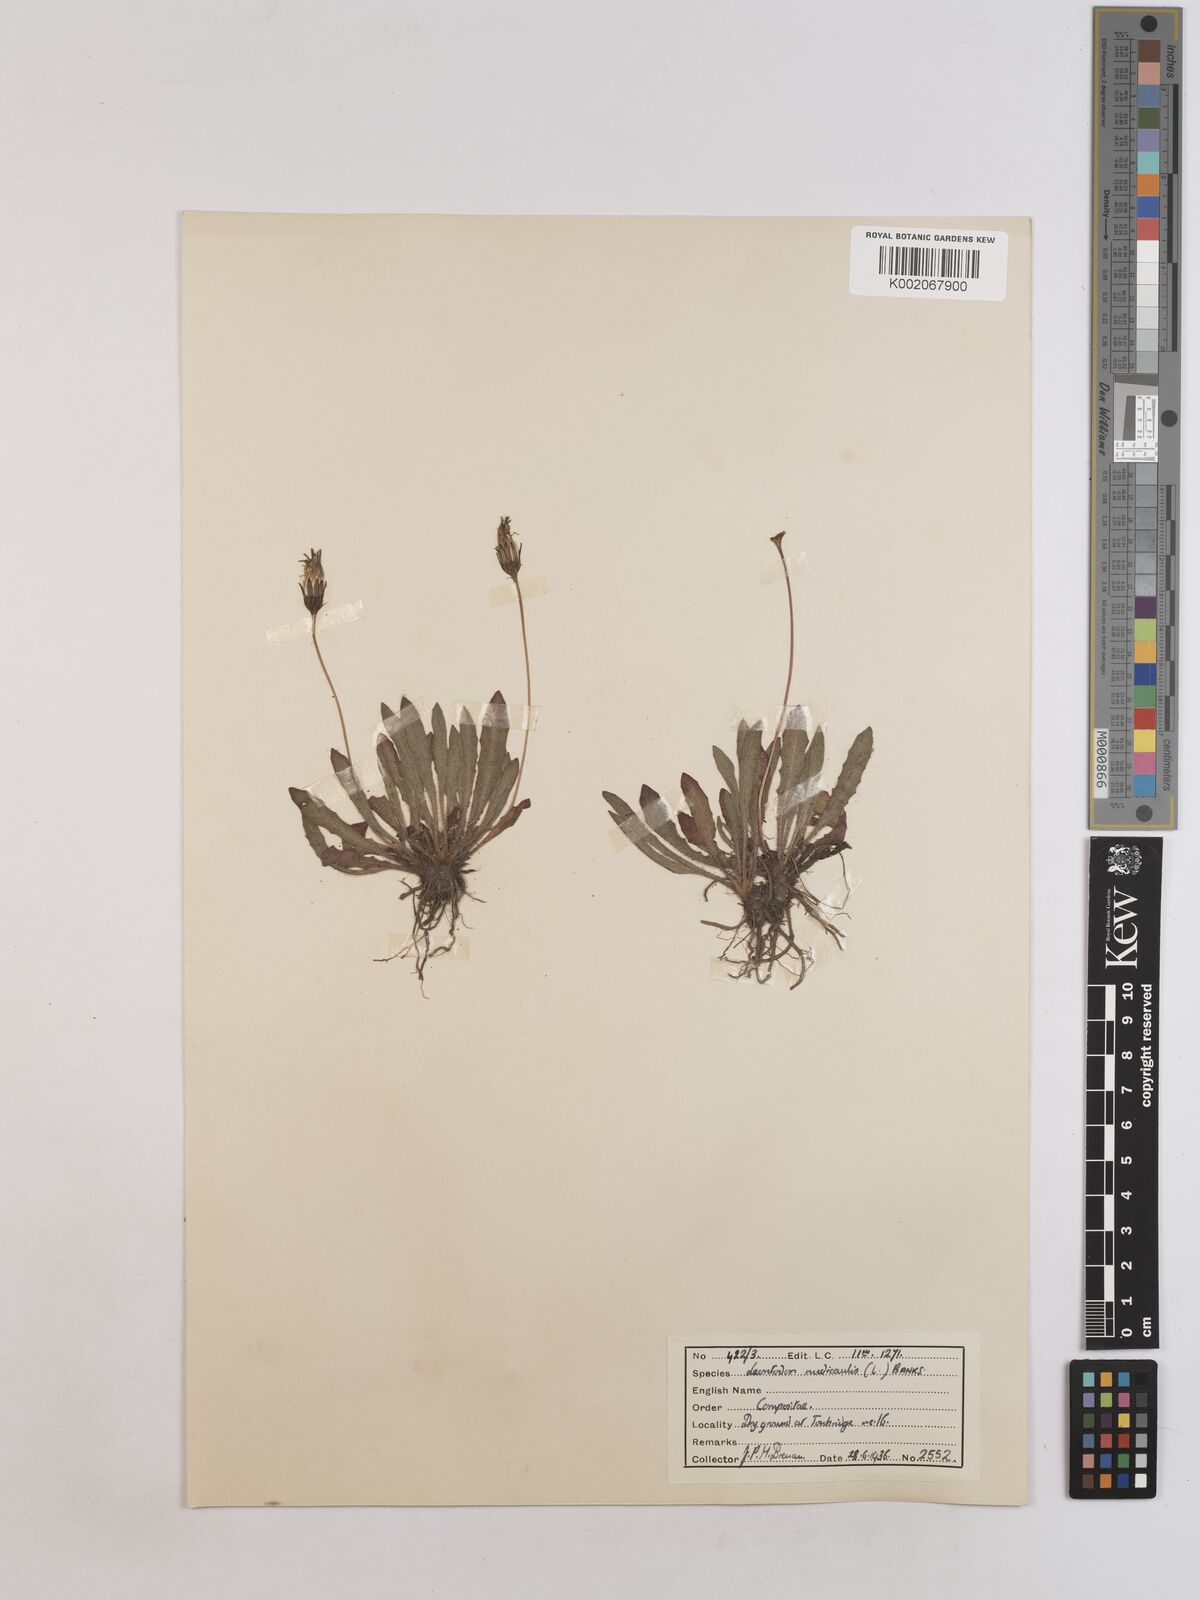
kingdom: Plantae
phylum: Tracheophyta
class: Magnoliopsida
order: Asterales
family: Asteraceae
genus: Thrincia
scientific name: Thrincia saxatilis
